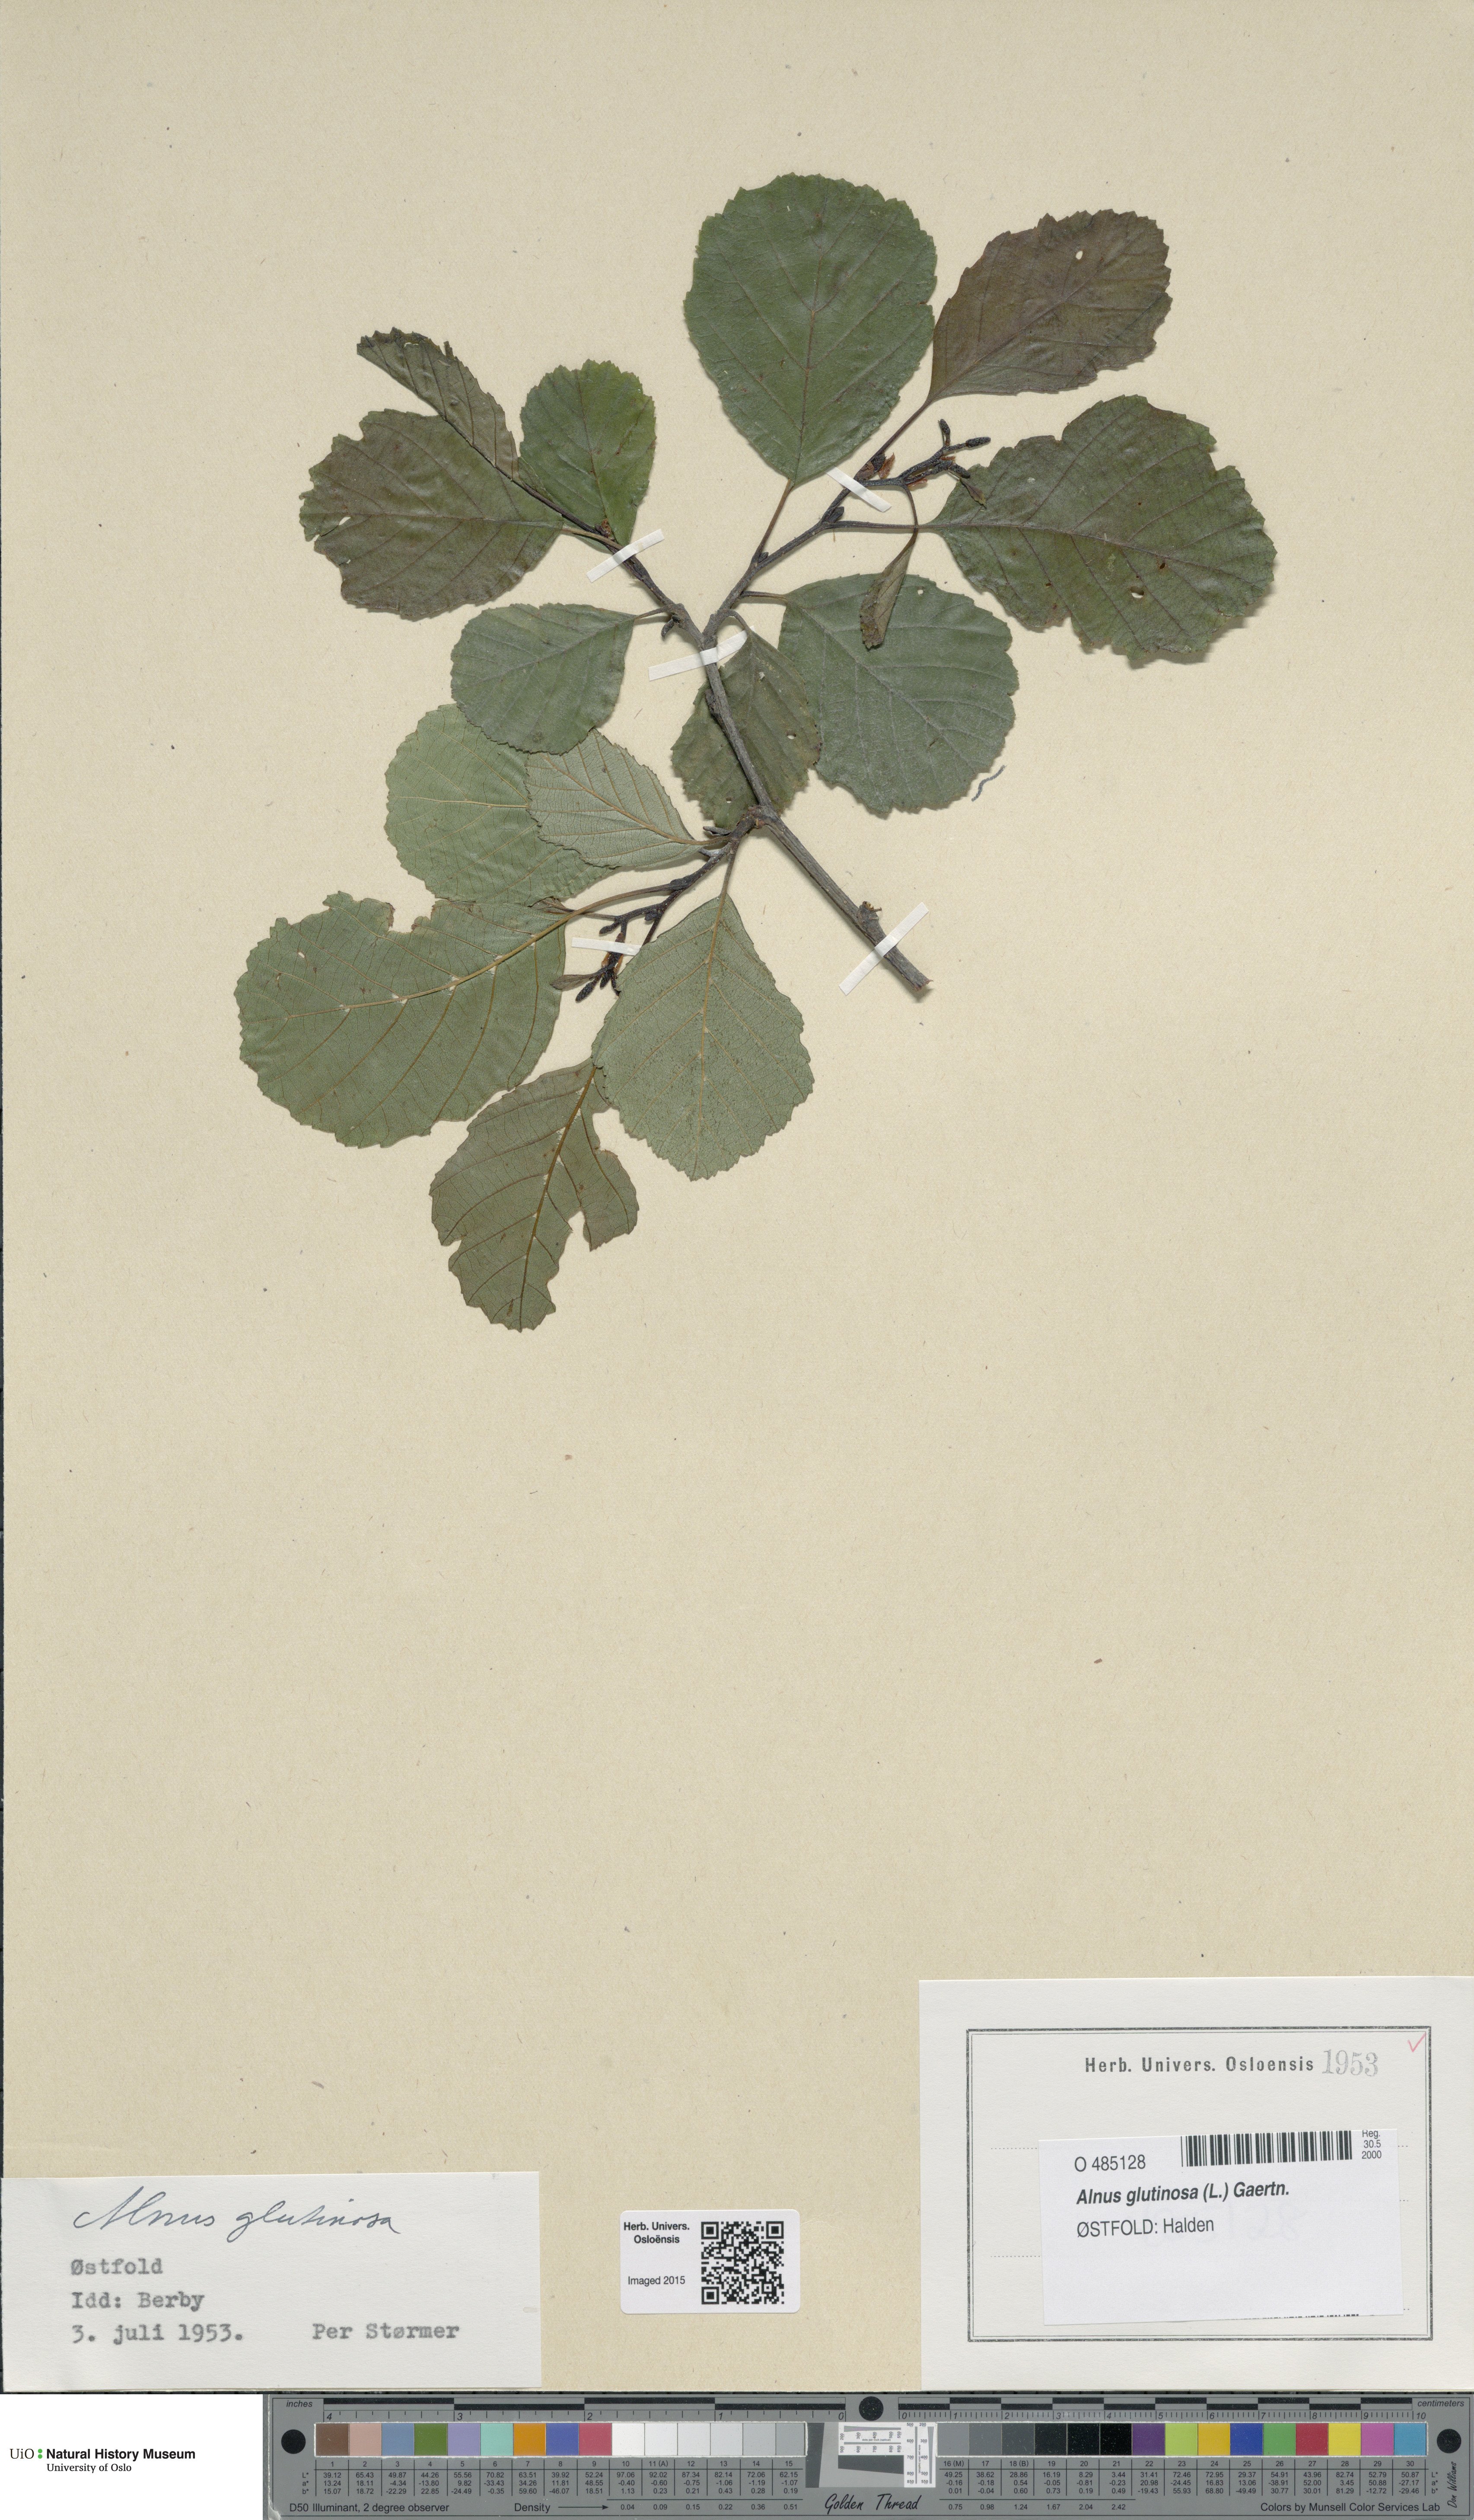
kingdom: Plantae
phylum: Tracheophyta
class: Magnoliopsida
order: Fagales
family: Betulaceae
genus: Alnus
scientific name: Alnus glutinosa
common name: Black alder
